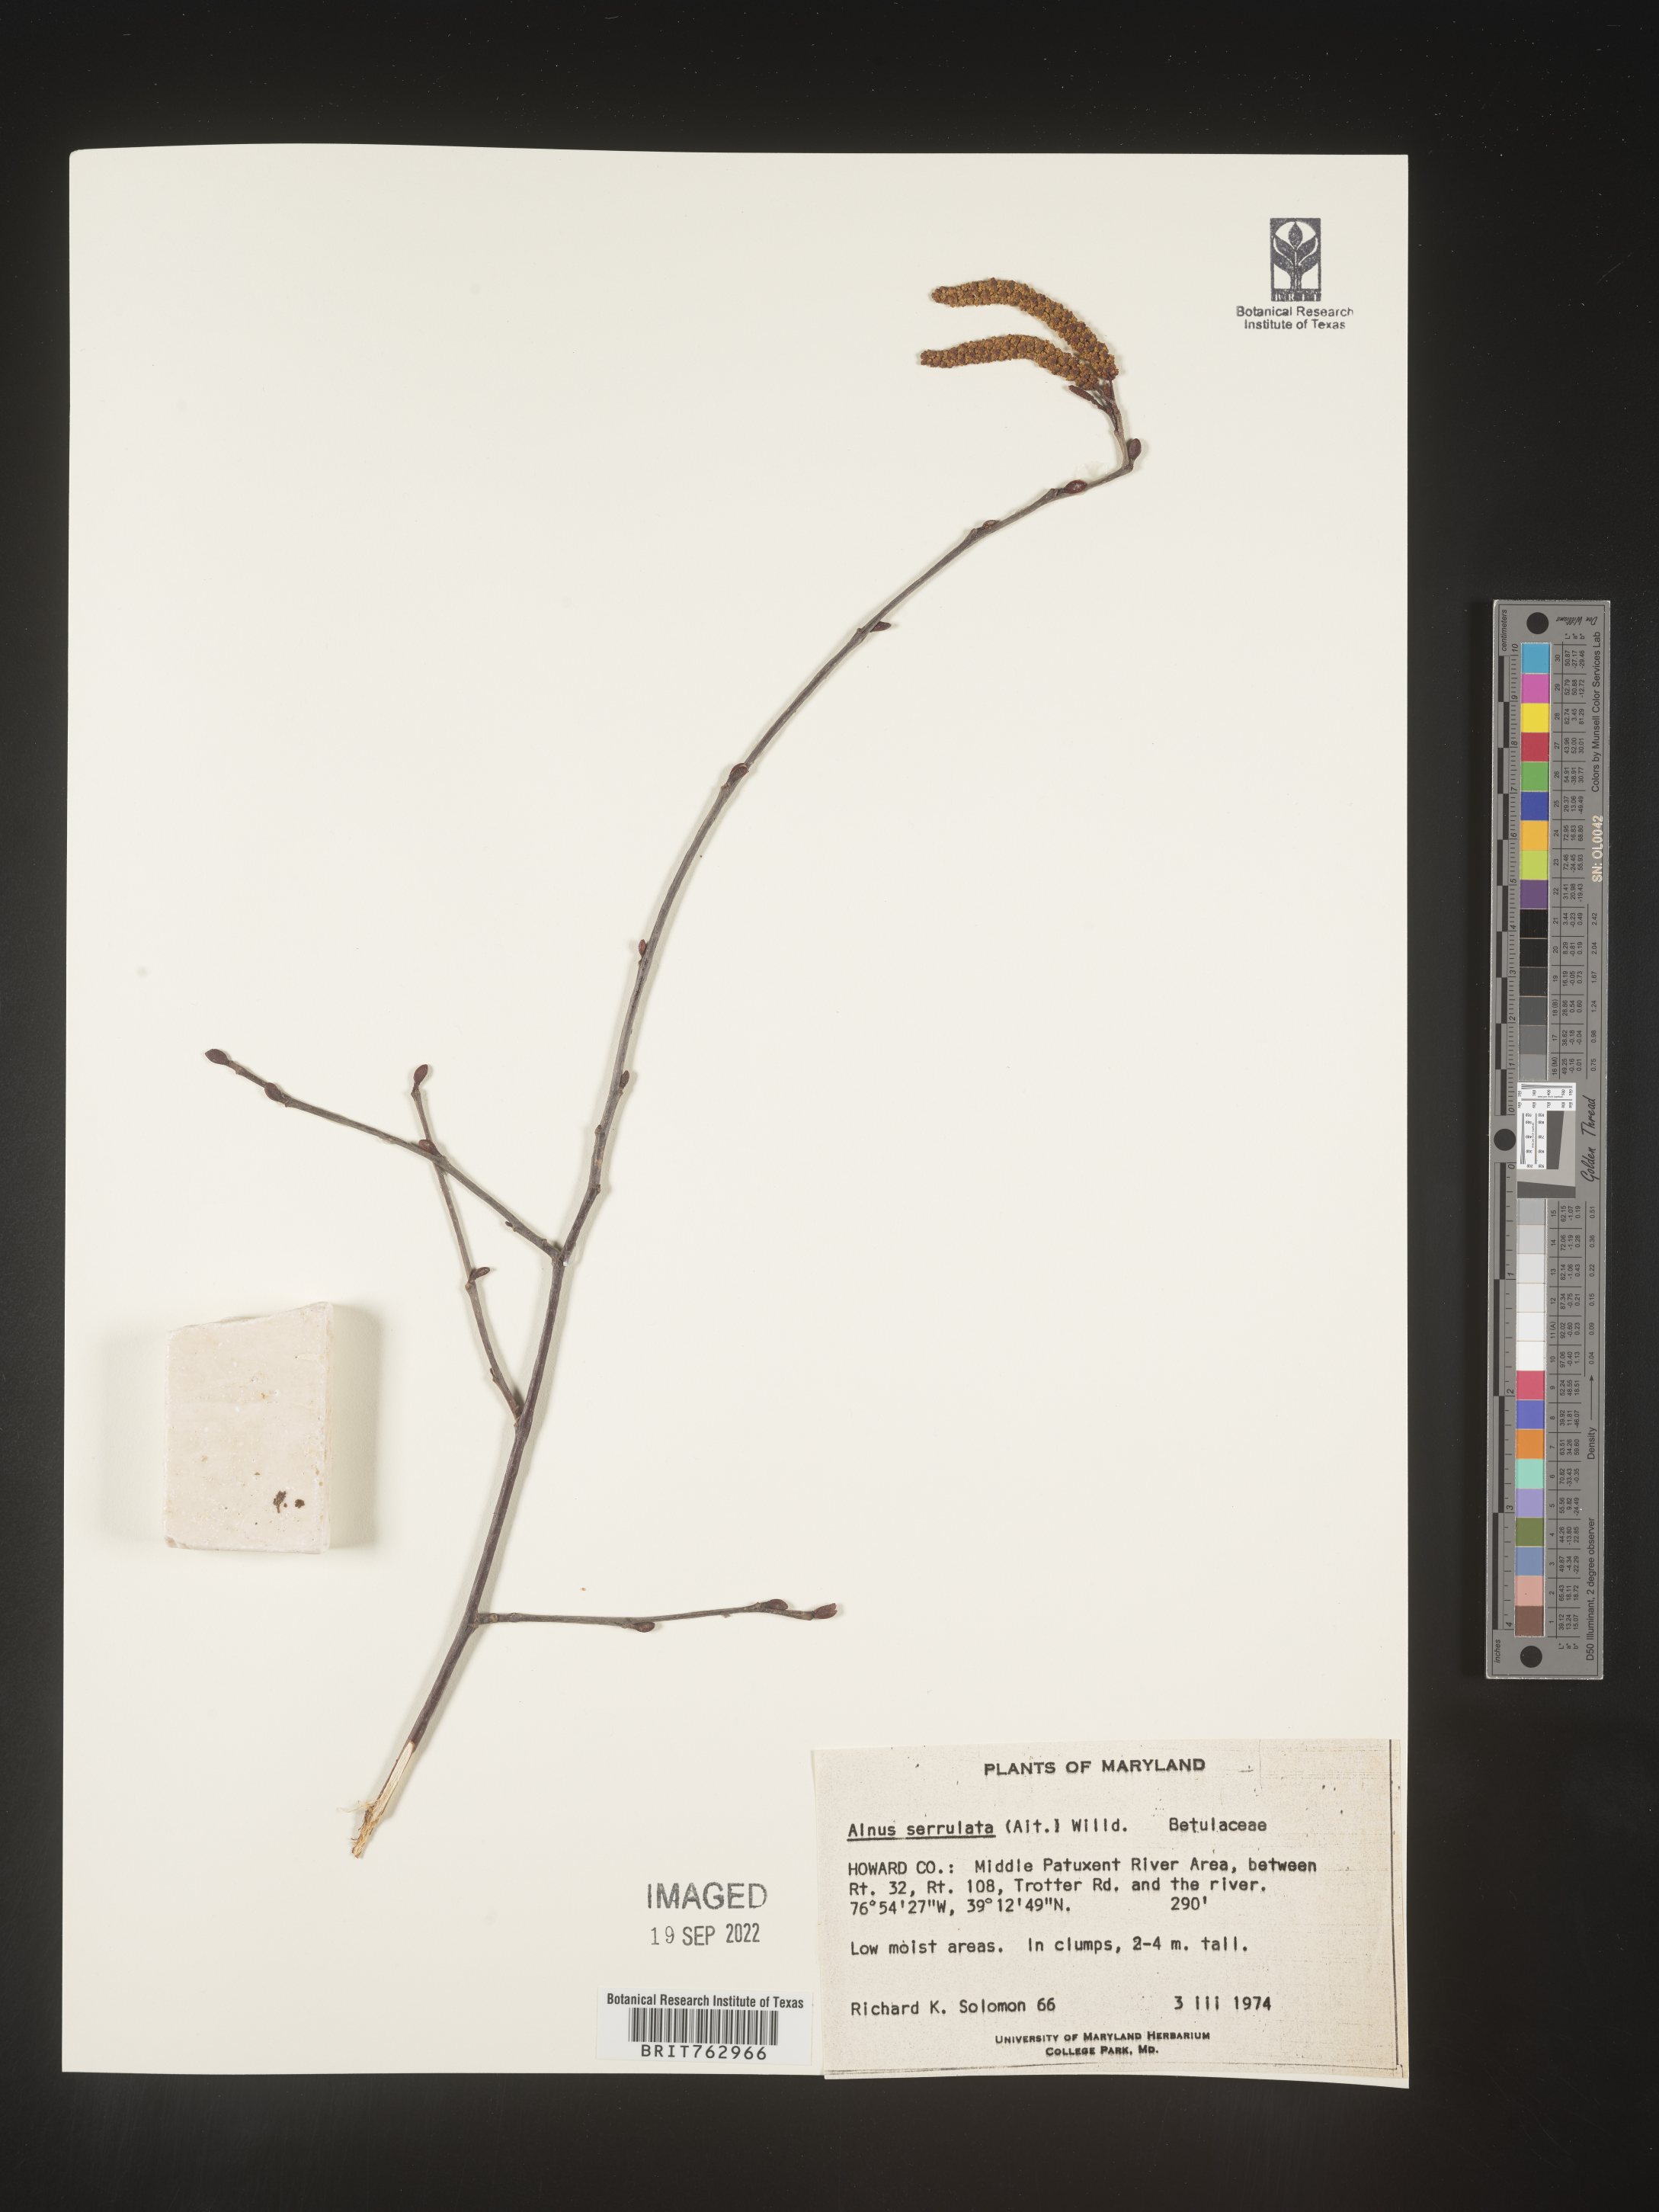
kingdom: Plantae
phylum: Tracheophyta
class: Magnoliopsida
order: Fagales
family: Betulaceae
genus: Alnus
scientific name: Alnus serrulata
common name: Hazel alder
